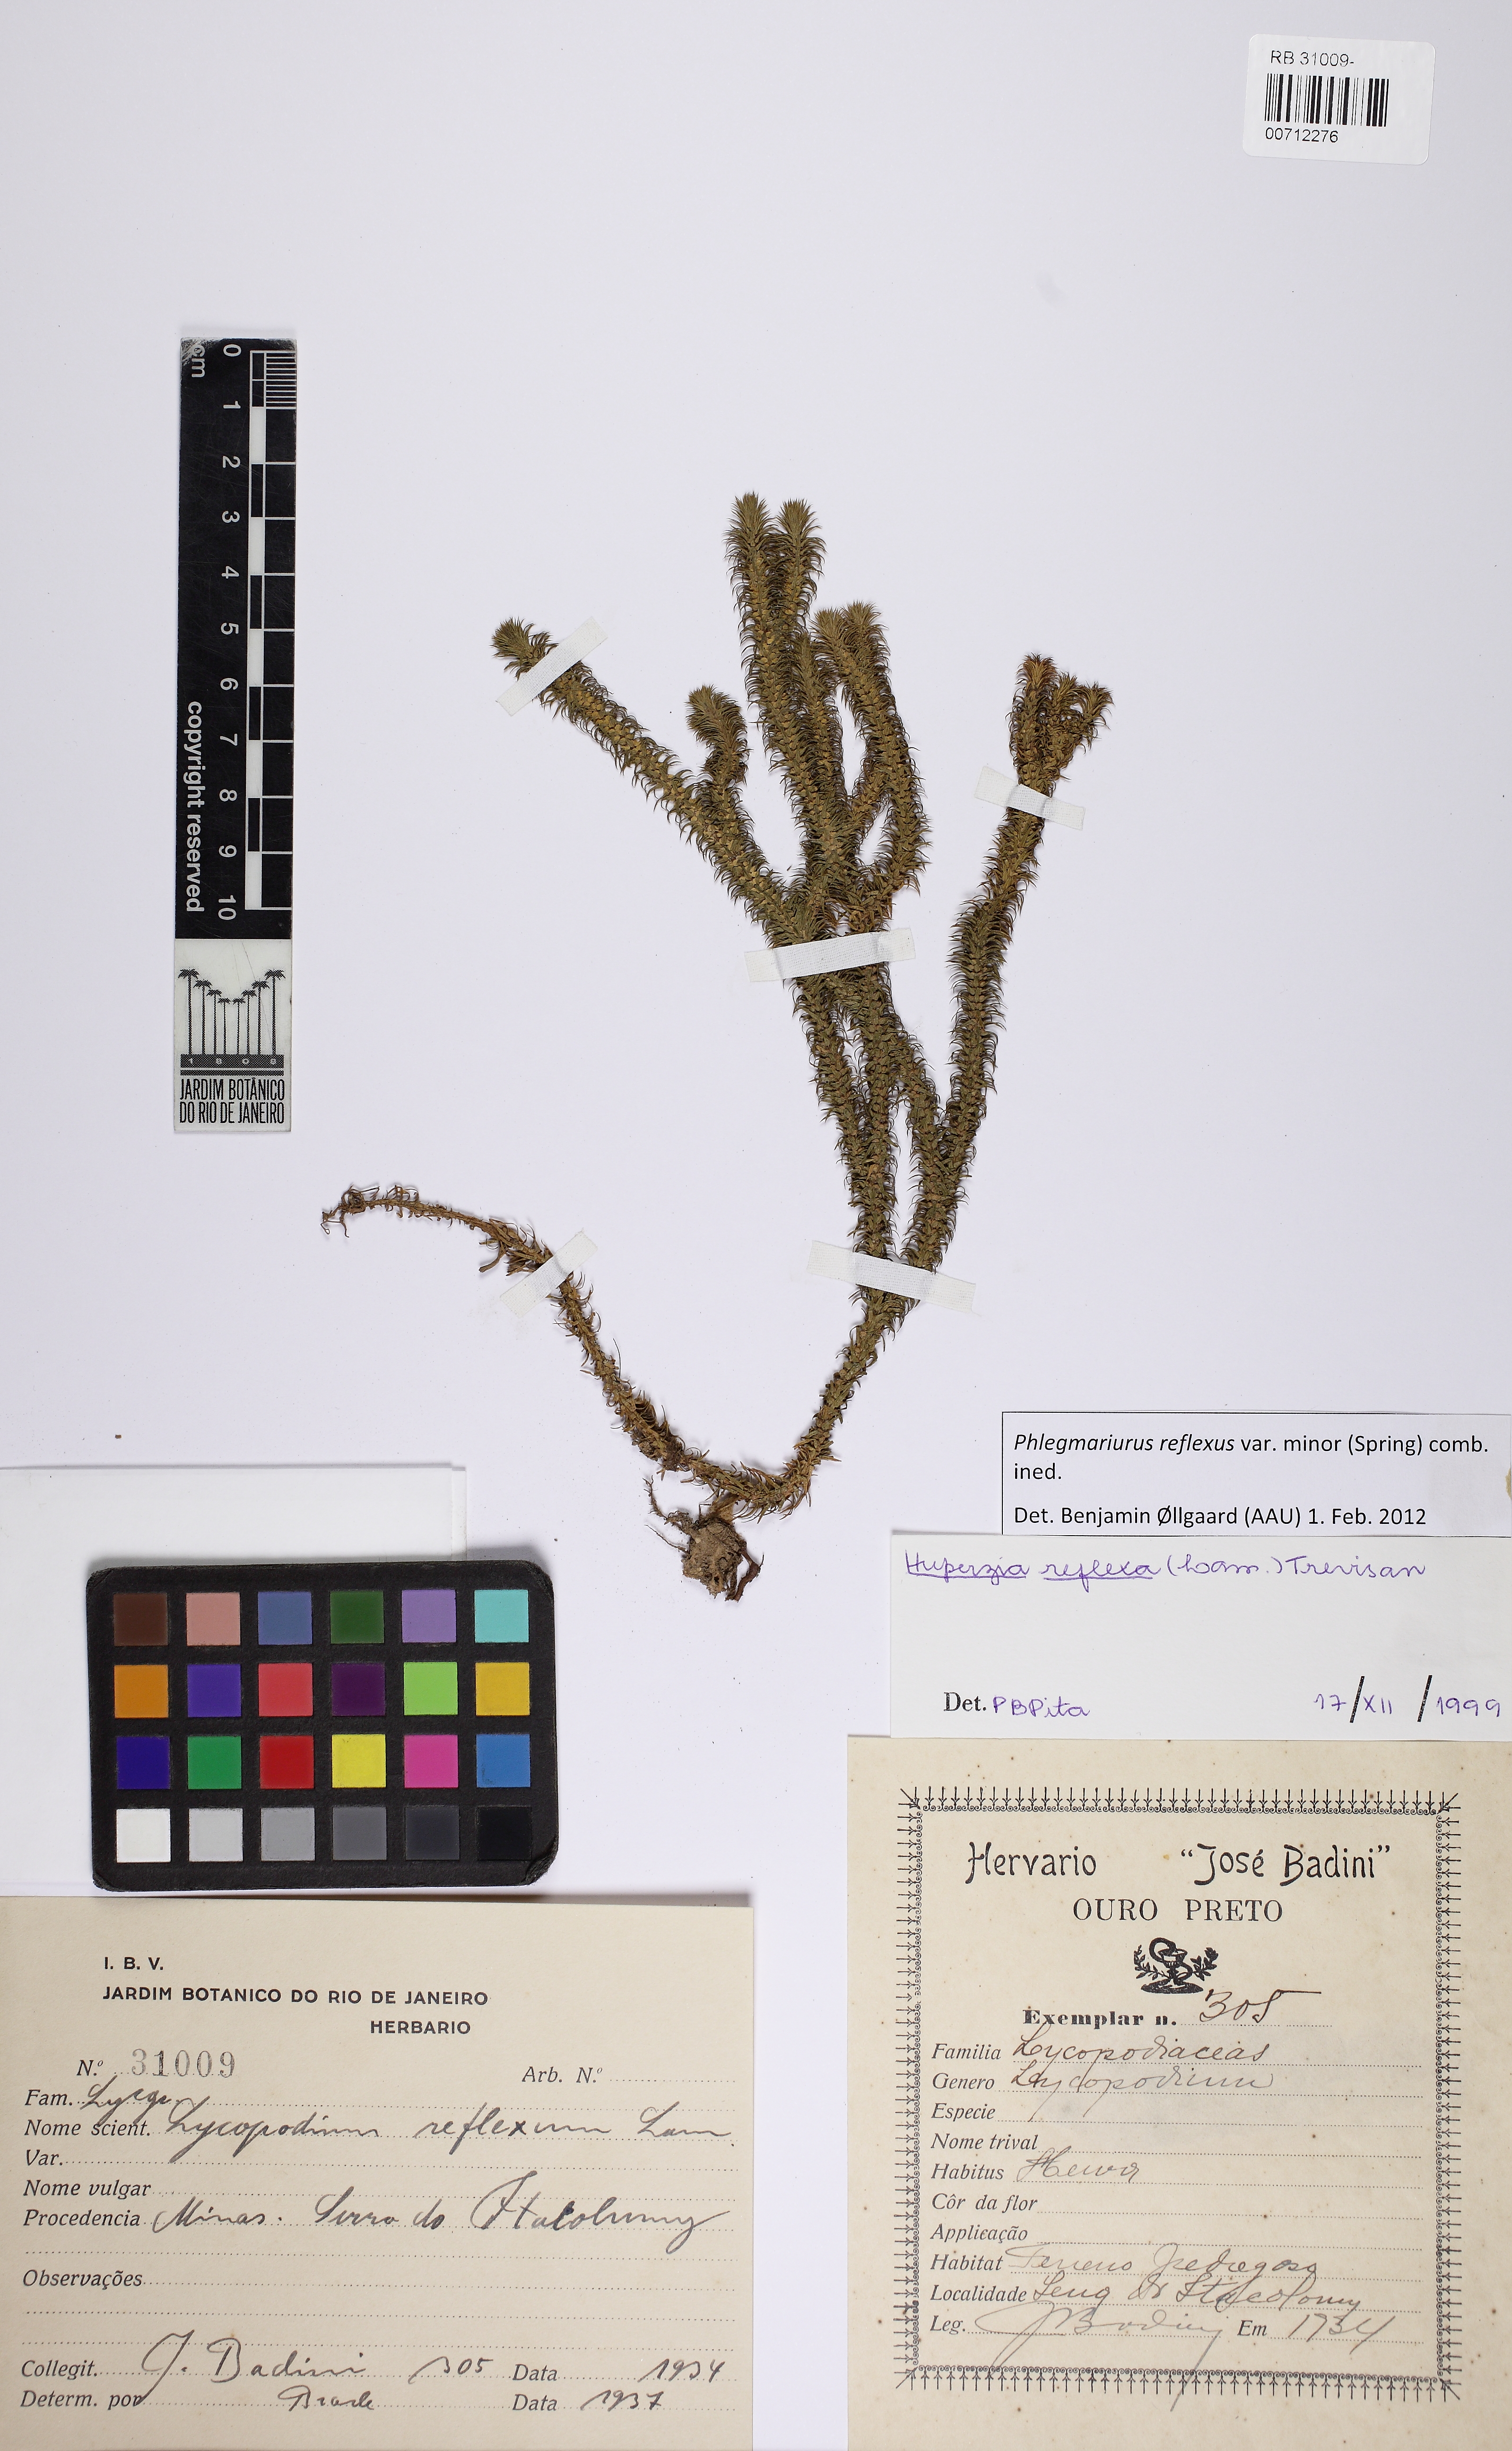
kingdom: Plantae
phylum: Tracheophyta
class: Lycopodiopsida
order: Lycopodiales
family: Lycopodiaceae
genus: Phlegmariurus
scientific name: Phlegmariurus reflexus
